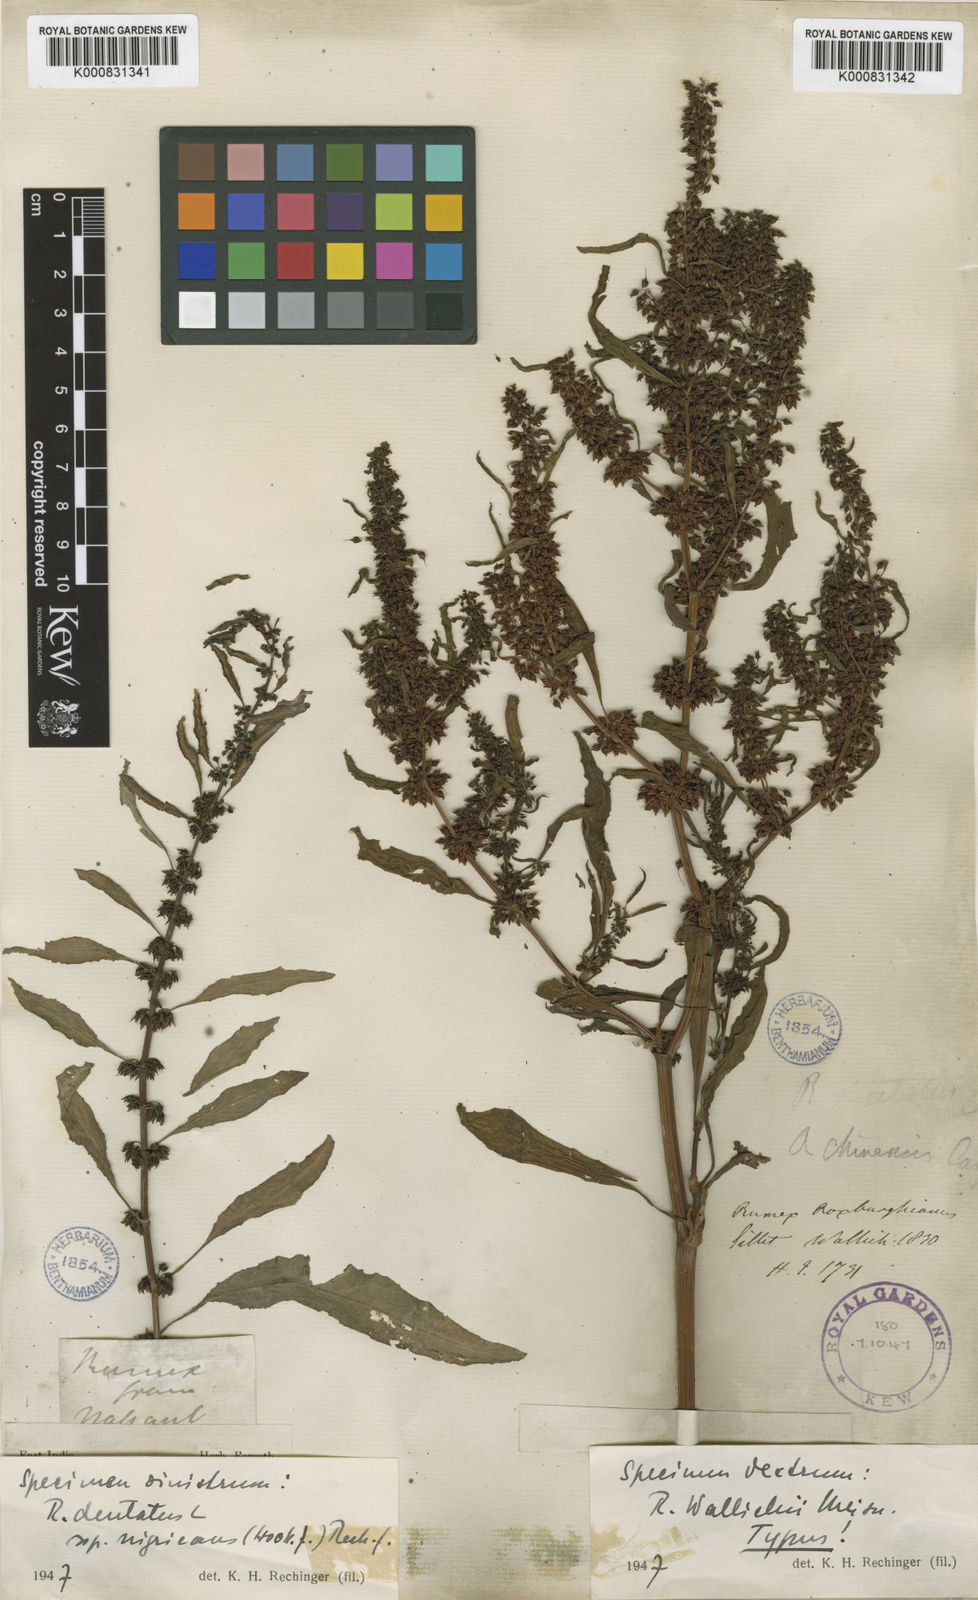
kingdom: Plantae
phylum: Tracheophyta
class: Magnoliopsida
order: Caryophyllales
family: Polygonaceae
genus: Rumex
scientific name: Rumex microcarpus
